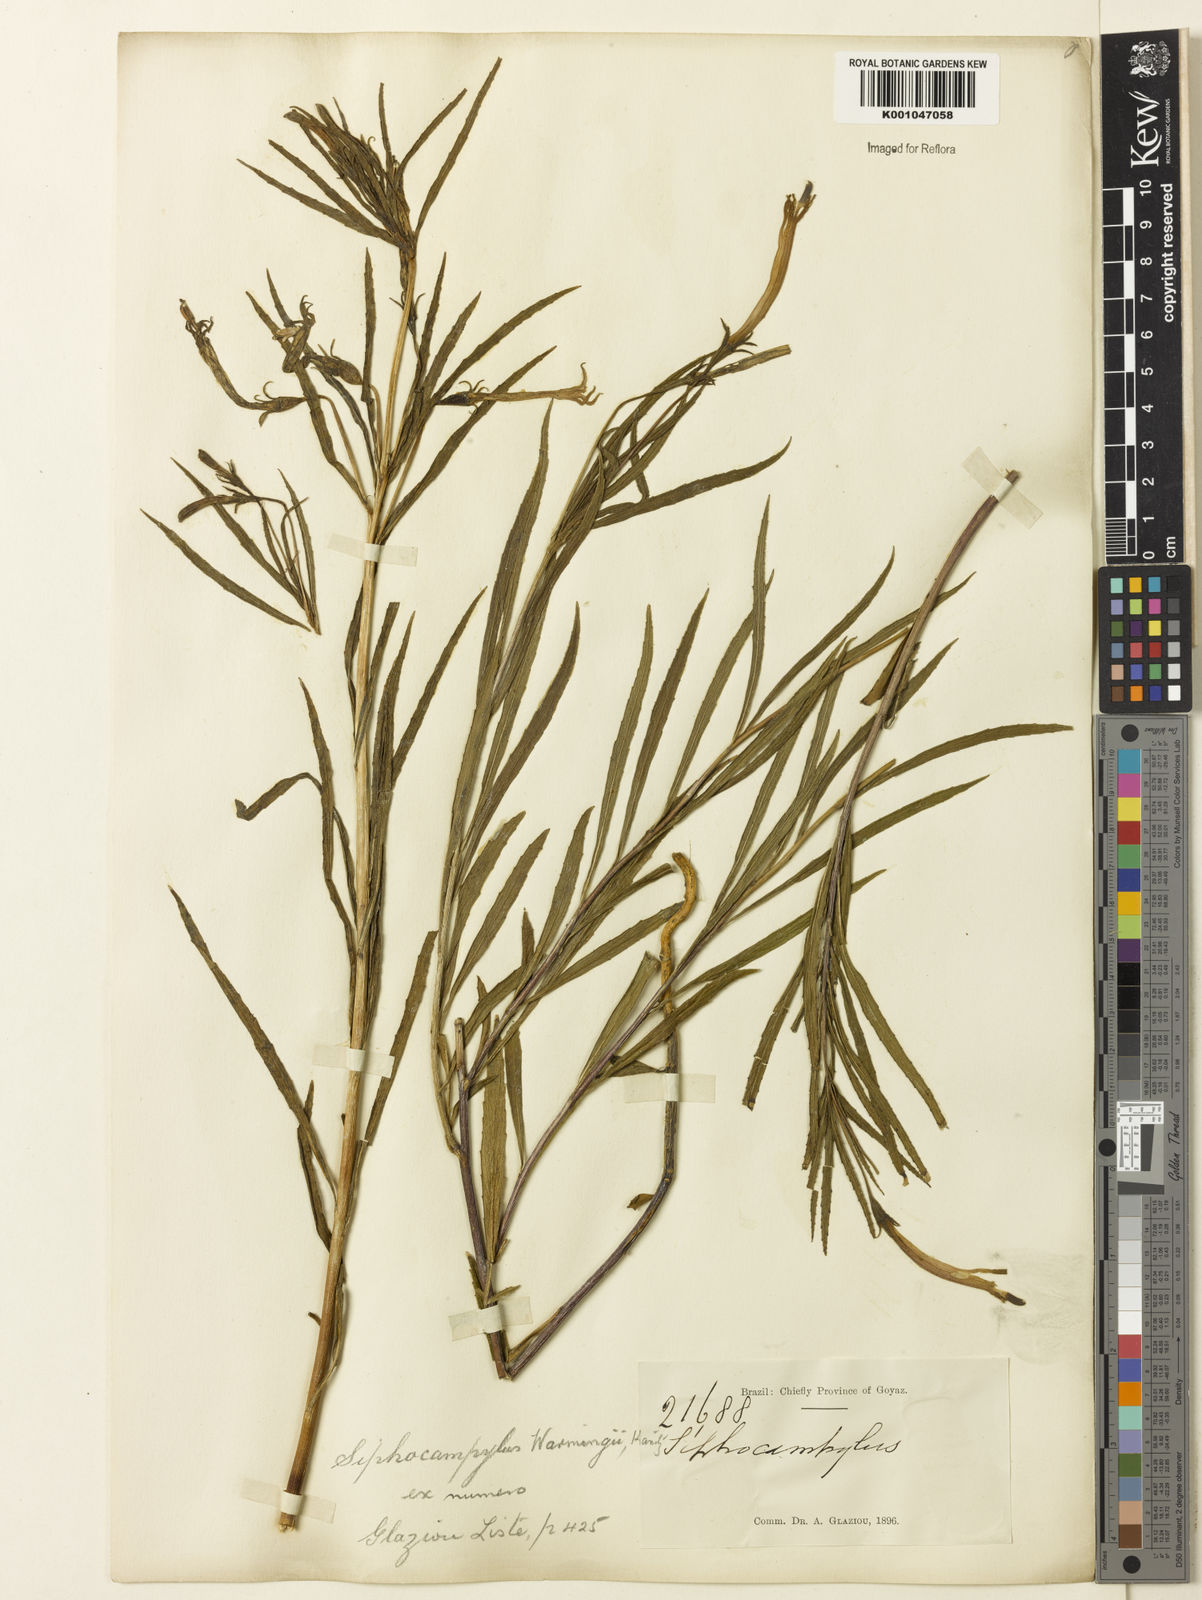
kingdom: Plantae
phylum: Tracheophyta
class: Magnoliopsida
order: Asterales
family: Campanulaceae
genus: Siphocampylus
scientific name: Siphocampylus warmingii
